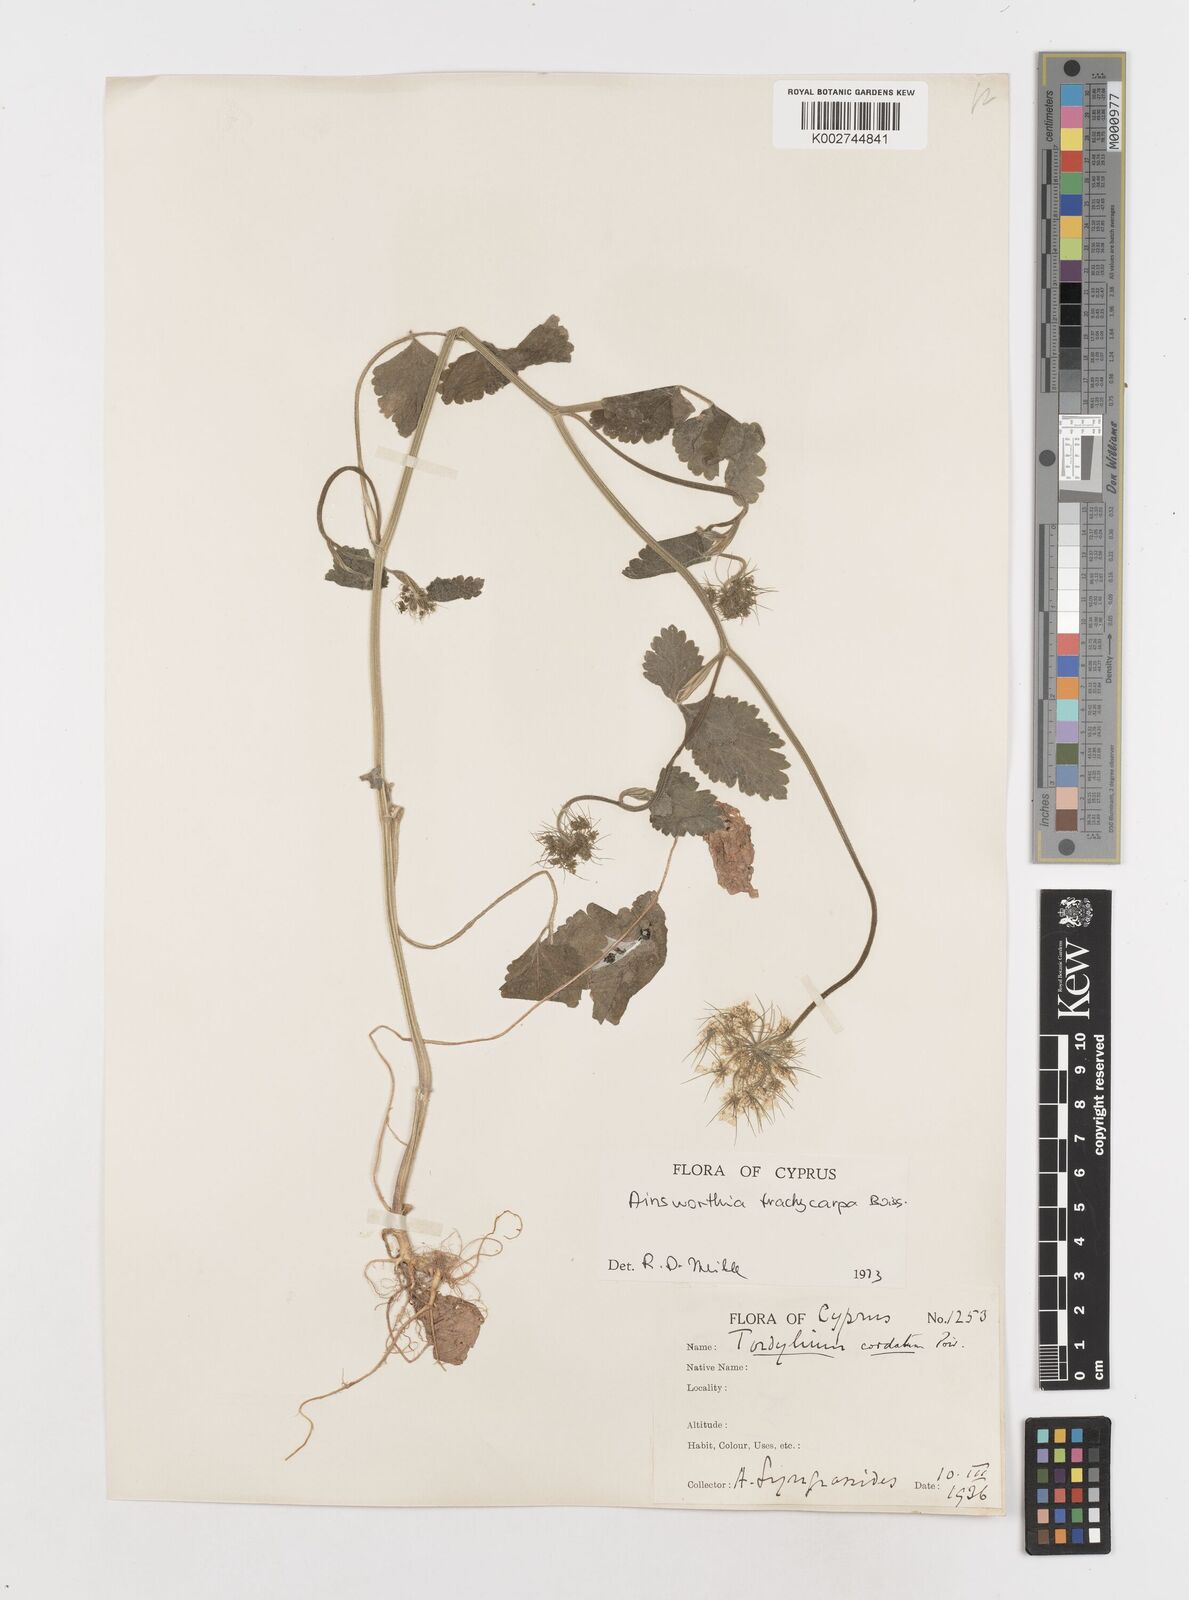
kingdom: Plantae
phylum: Tracheophyta
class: Magnoliopsida
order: Apiales
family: Apiaceae
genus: Ainsworthia
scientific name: Ainsworthia trachycarpa
